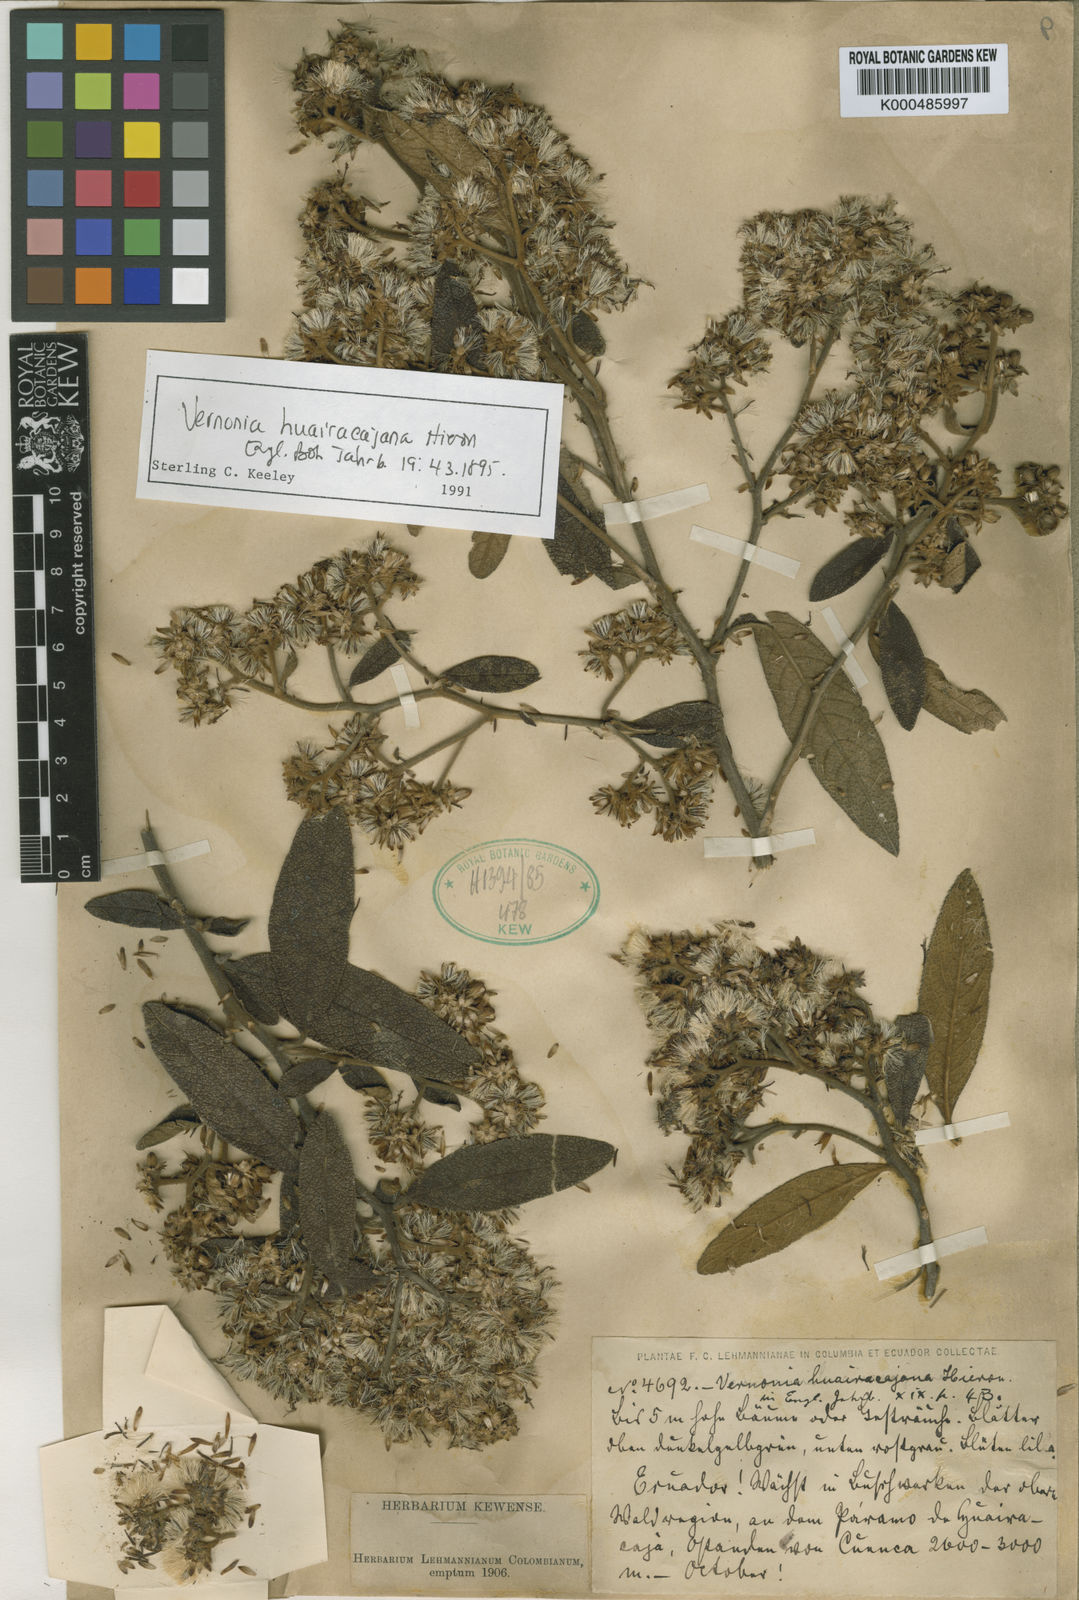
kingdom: Plantae
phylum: Tracheophyta
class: Magnoliopsida
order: Asterales
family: Asteraceae
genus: Critoniopsis
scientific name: Critoniopsis huairacajana
